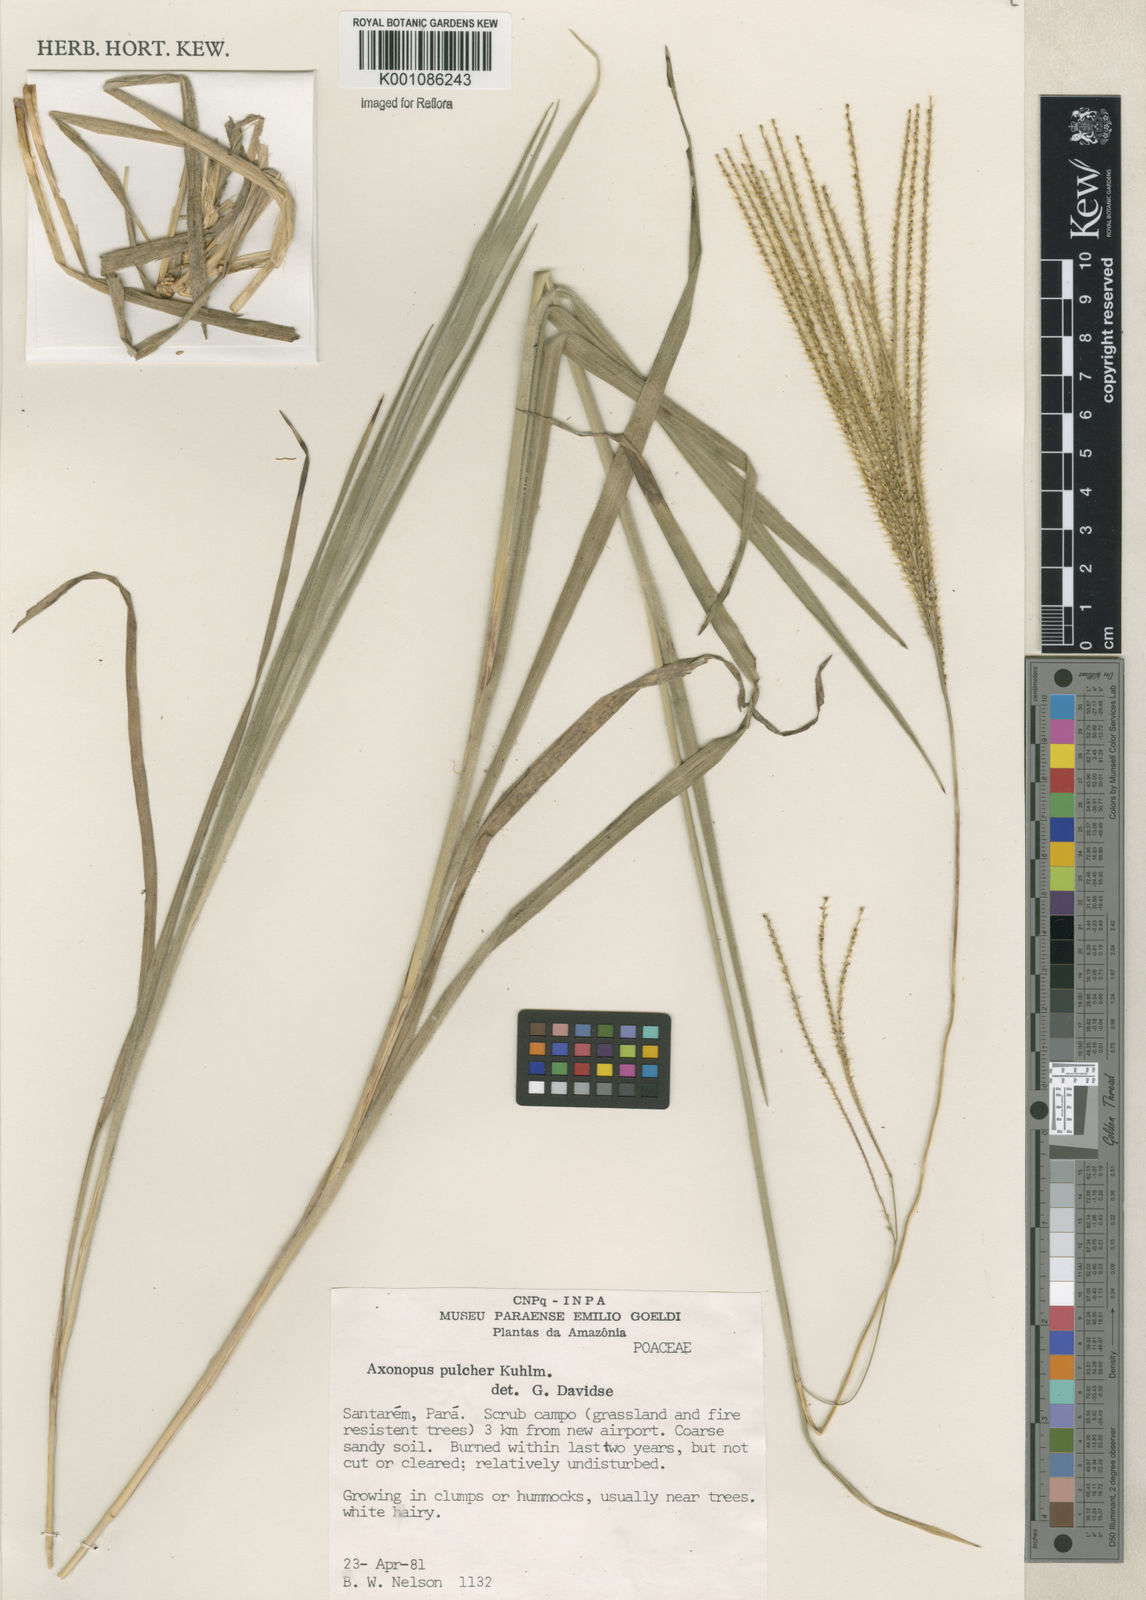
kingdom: Plantae
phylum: Tracheophyta
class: Liliopsida
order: Poales
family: Poaceae
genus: Axonopus
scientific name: Axonopus aureus
